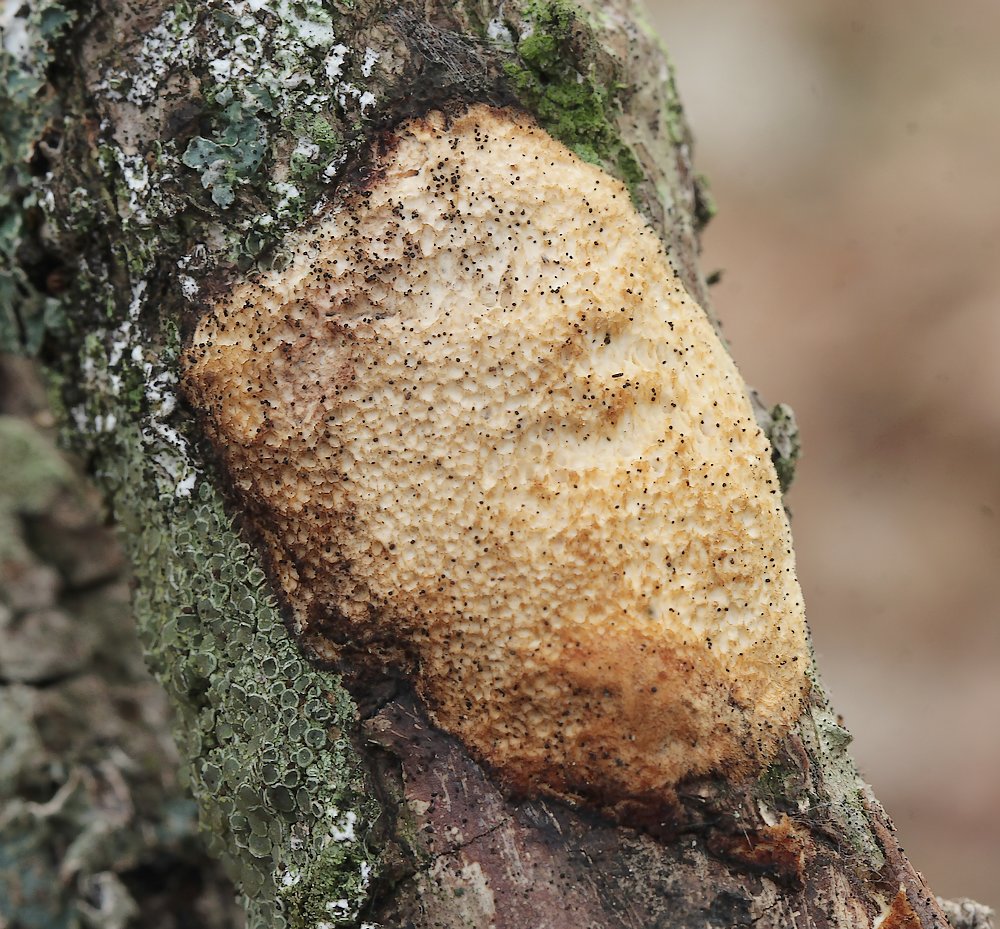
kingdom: Fungi
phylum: Basidiomycota
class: Agaricomycetes
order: Polyporales
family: Polyporaceae
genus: Szczepkamyces
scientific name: Szczepkamyces campestris
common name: hasselporesvamp
